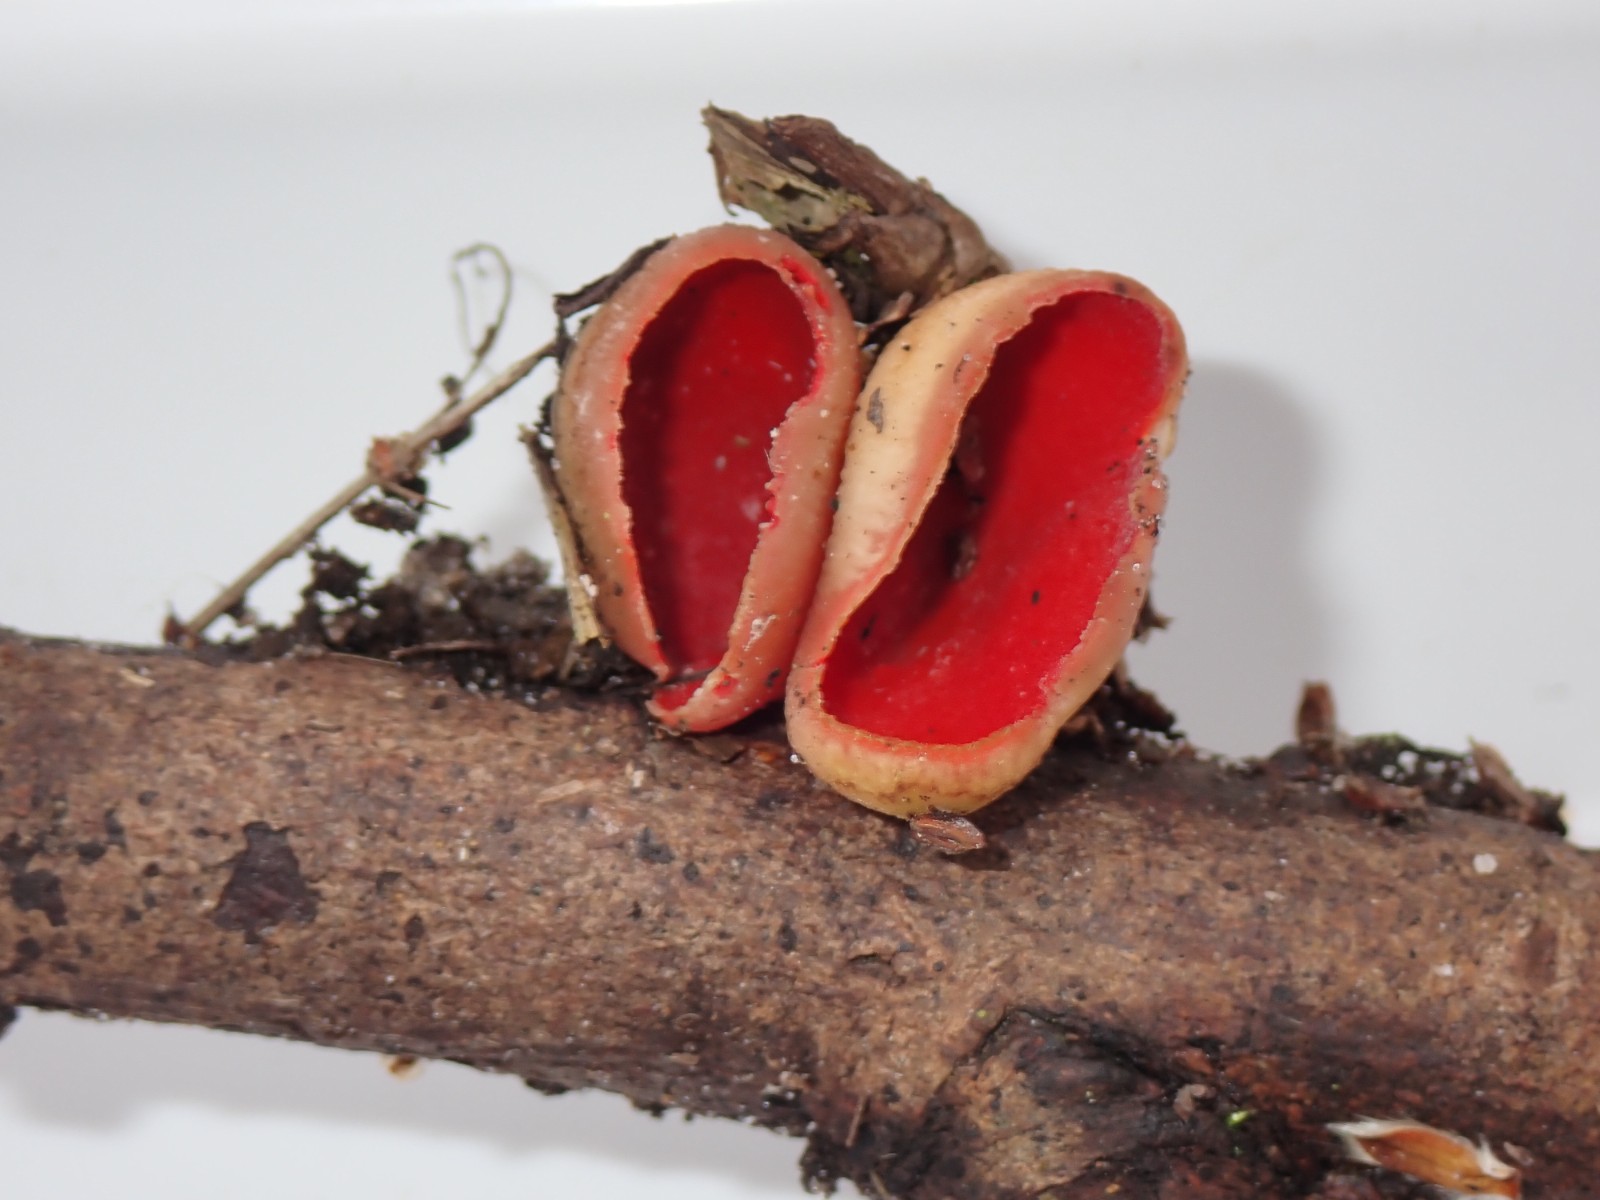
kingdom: Fungi
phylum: Ascomycota
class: Pezizomycetes
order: Pezizales
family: Sarcoscyphaceae
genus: Sarcoscypha
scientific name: Sarcoscypha austriaca
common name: krølhåret pragtbæger
